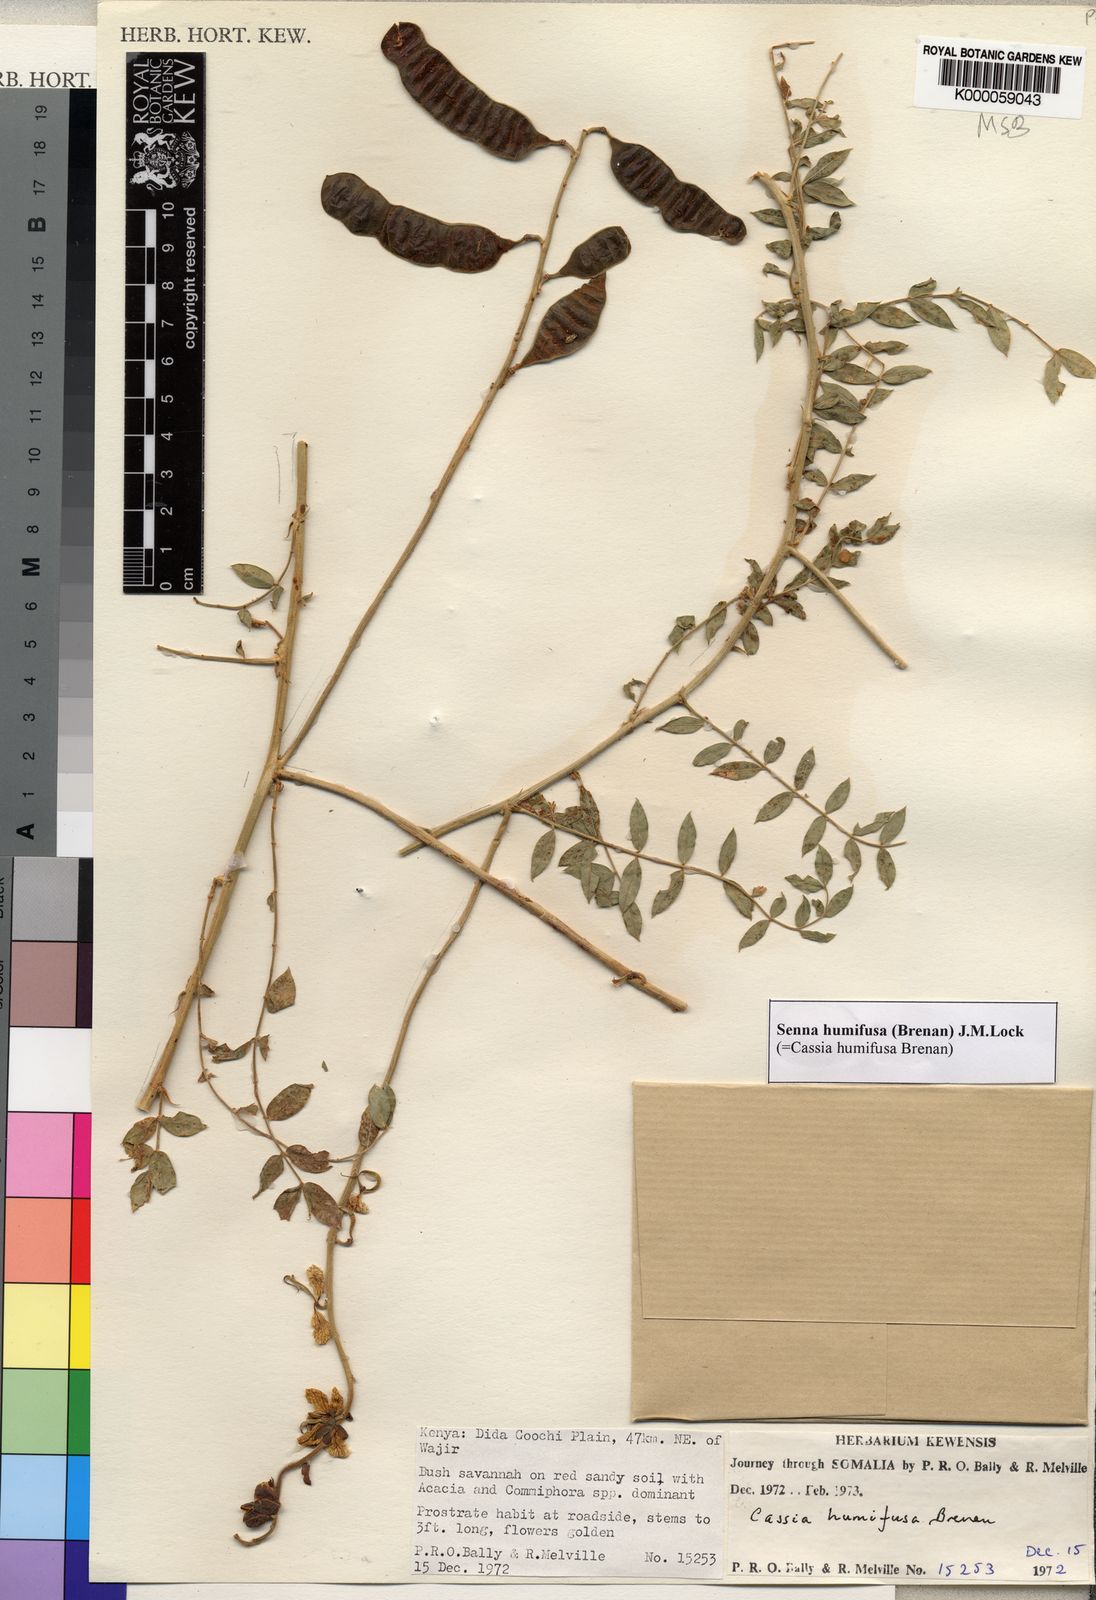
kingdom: Plantae
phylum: Tracheophyta
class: Magnoliopsida
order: Fabales
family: Fabaceae
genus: Senna
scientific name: Senna humifusa
